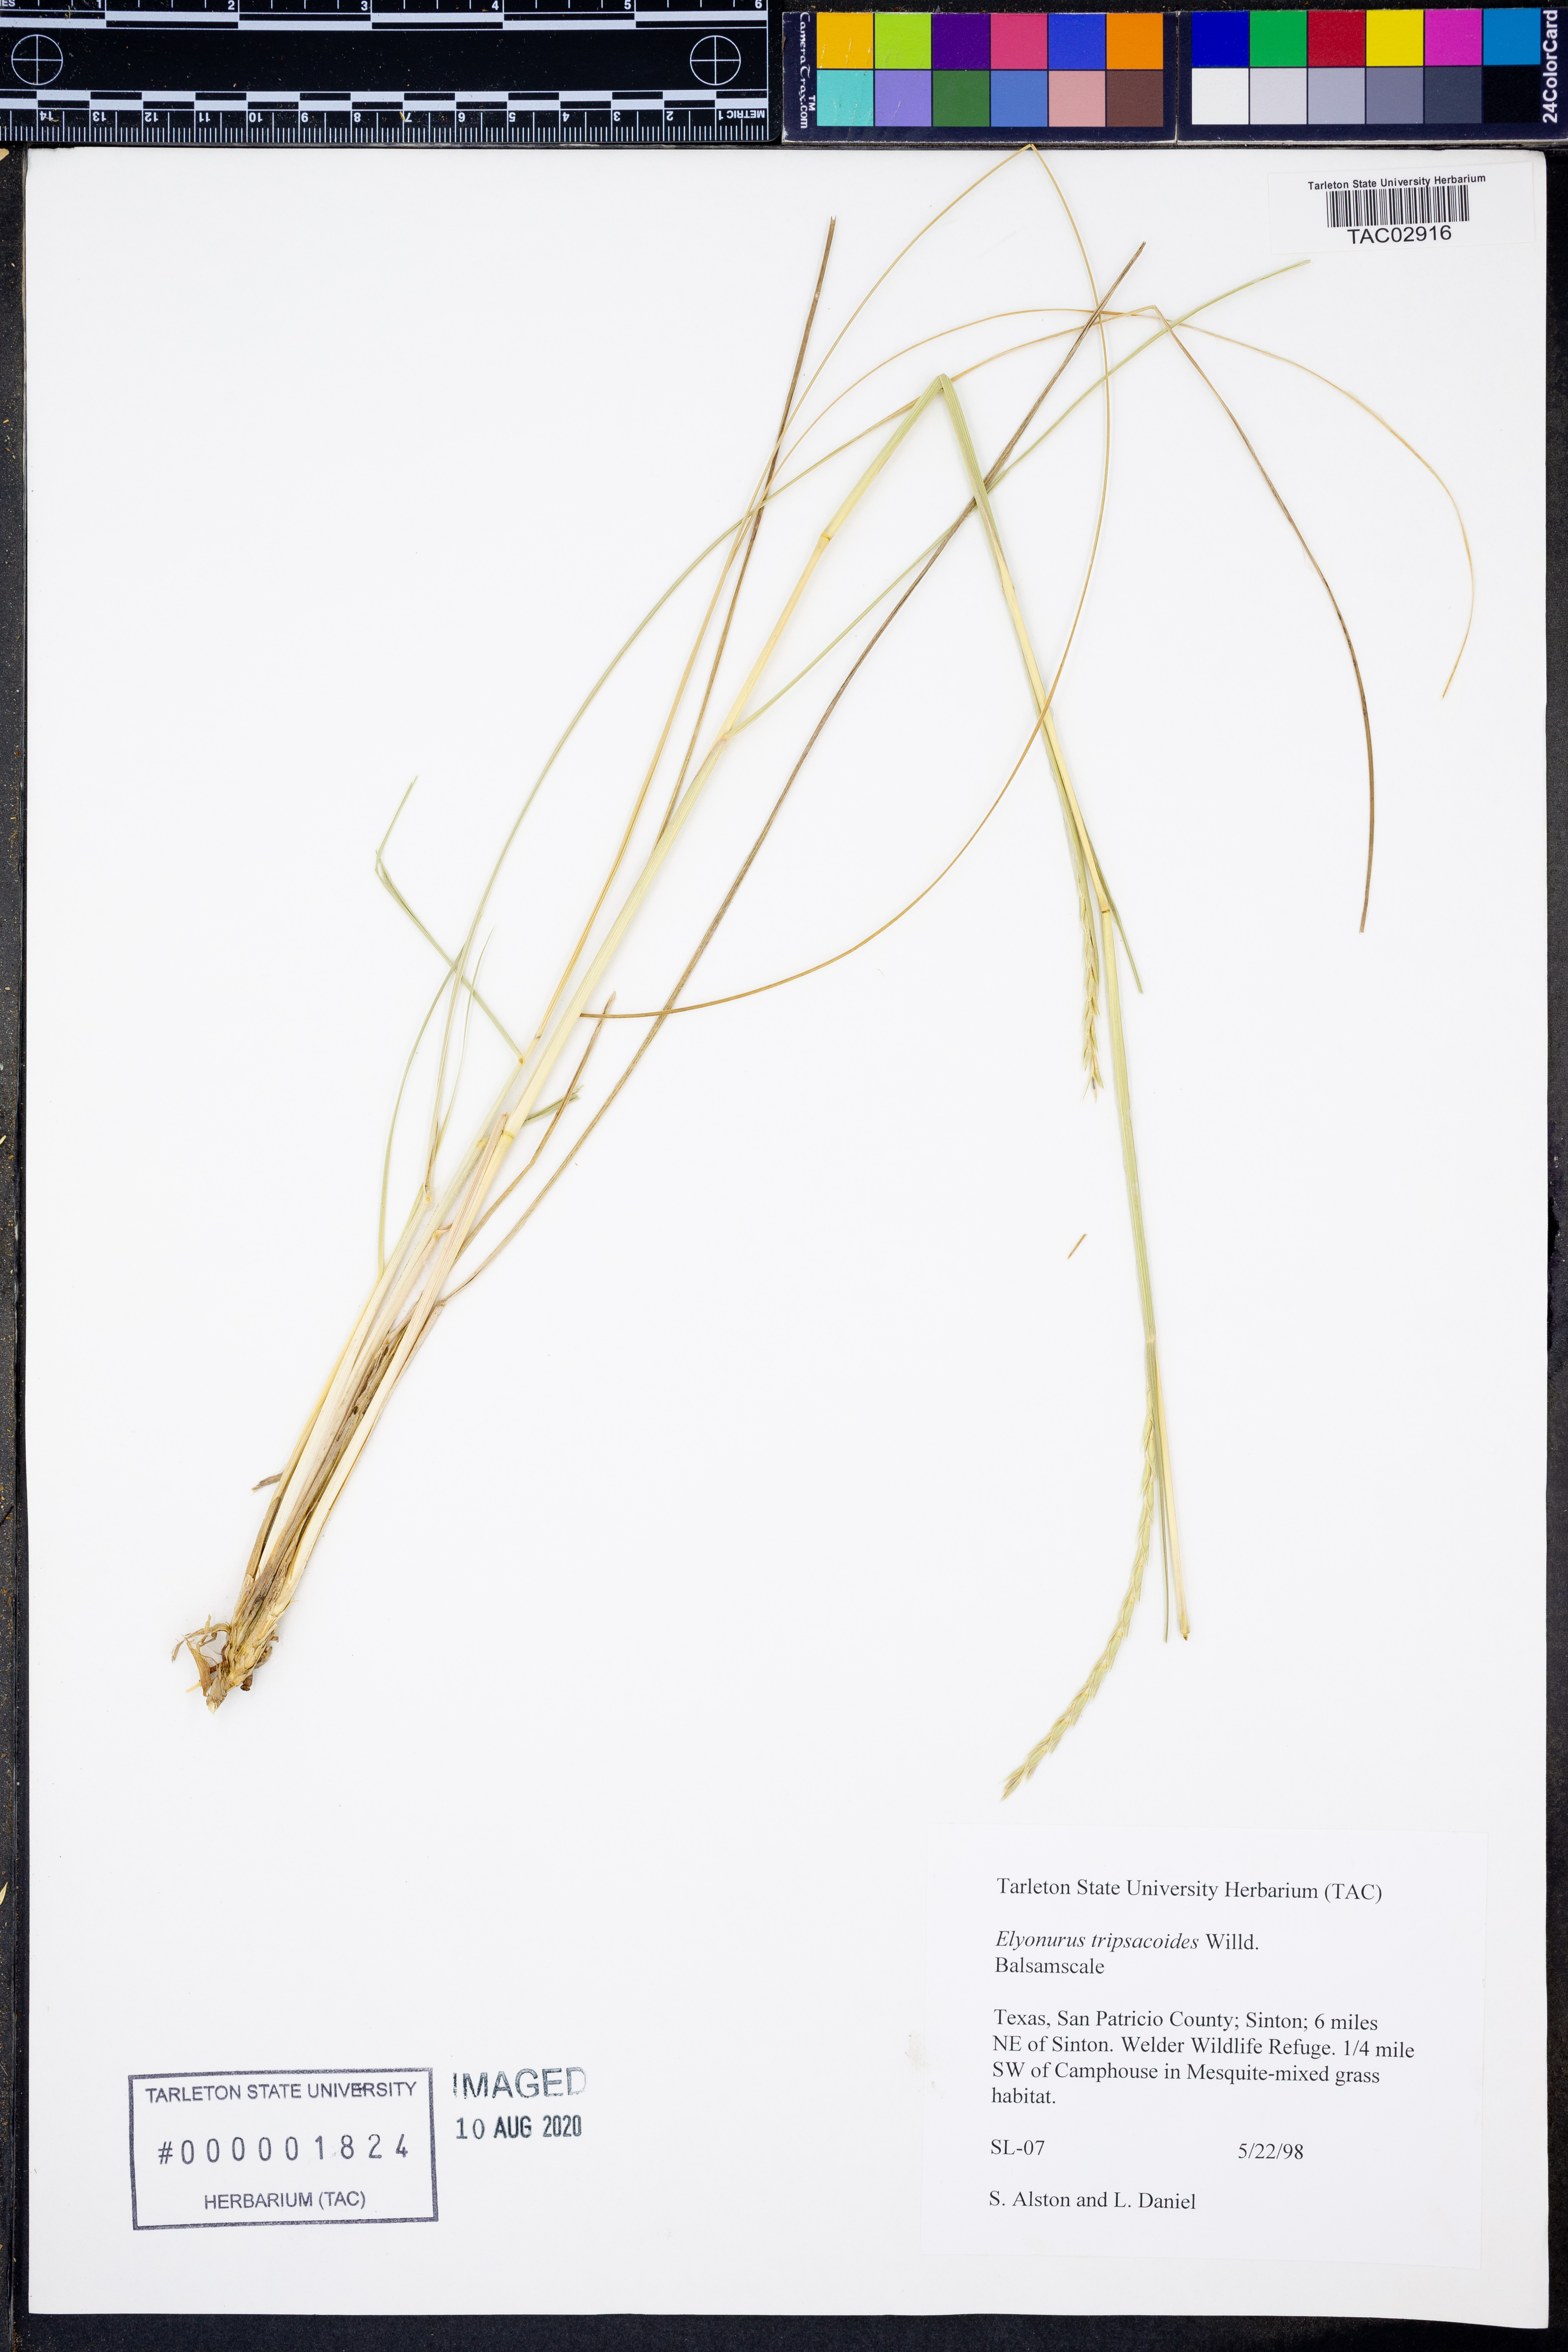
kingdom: Plantae
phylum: Tracheophyta
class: Liliopsida
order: Poales
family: Poaceae
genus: Elionurus
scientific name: Elionurus tripsacoides
